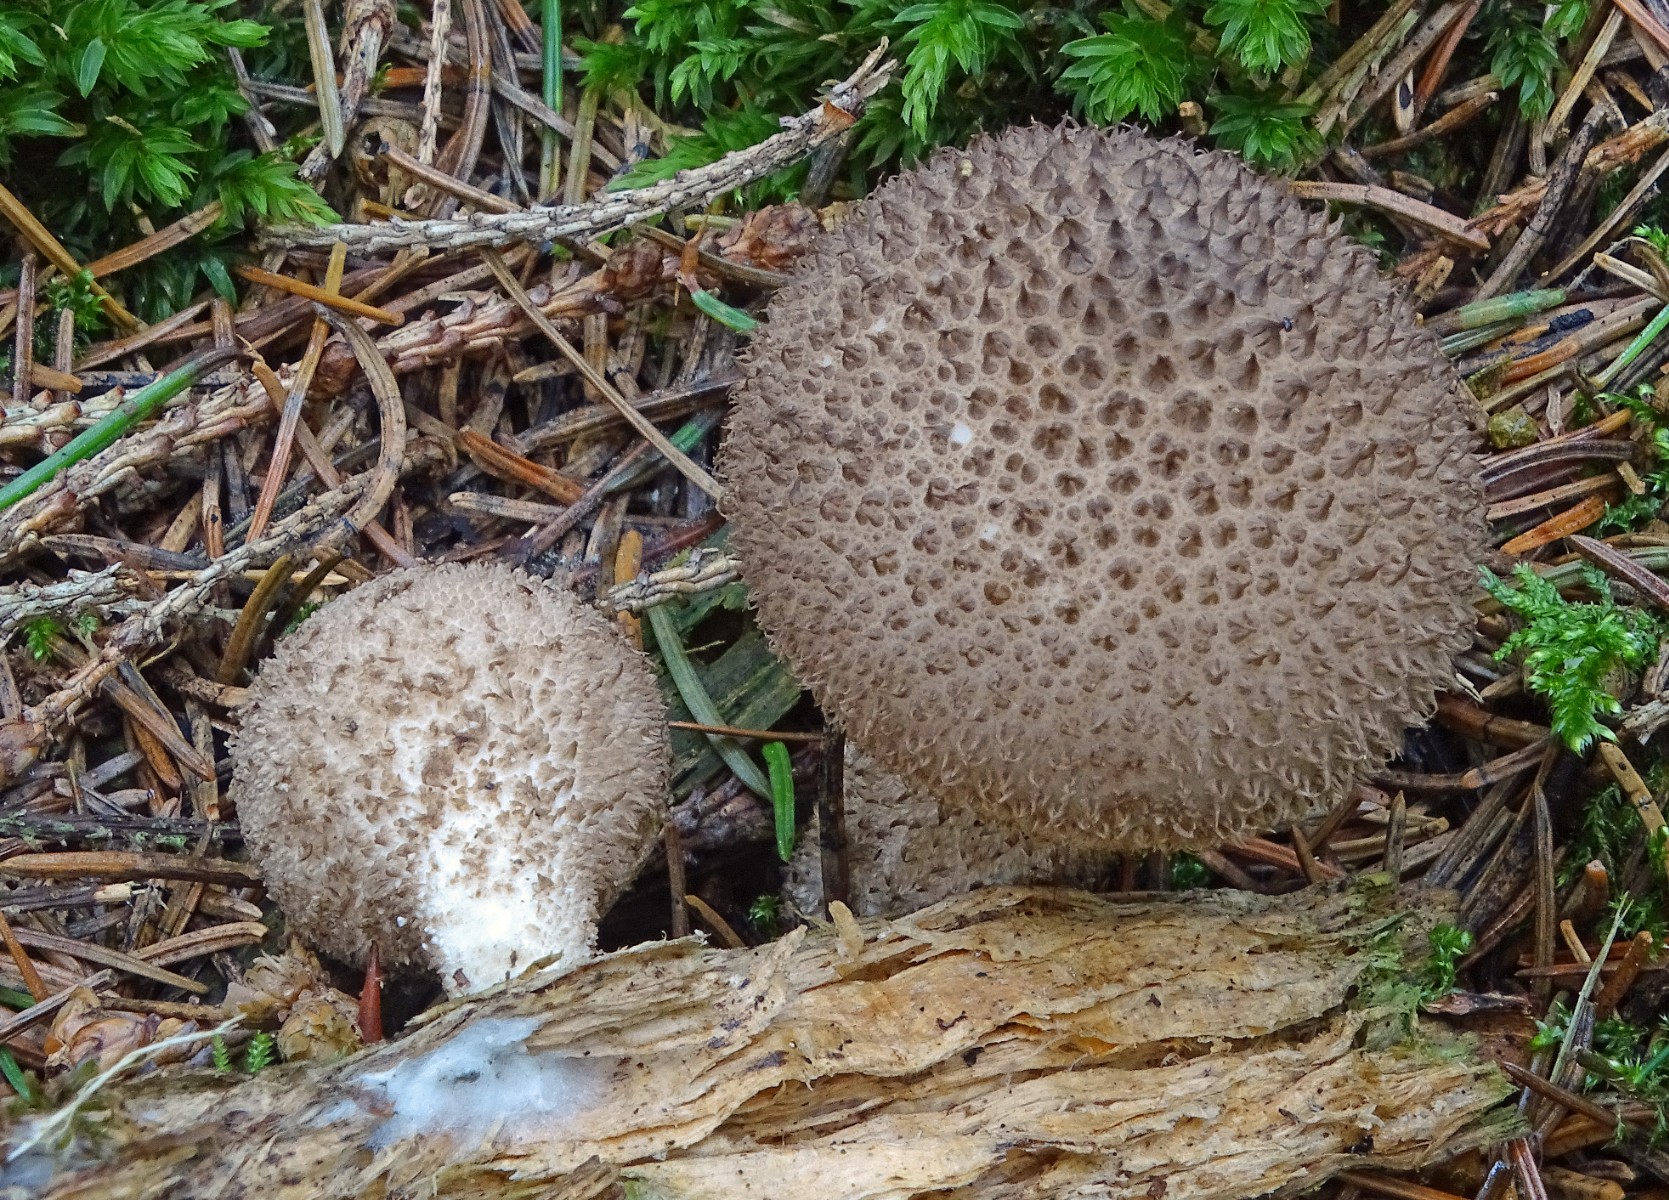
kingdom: Fungi
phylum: Basidiomycota
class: Agaricomycetes
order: Agaricales
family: Lycoperdaceae
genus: Lycoperdon
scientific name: Lycoperdon nigrescens
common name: sortagtig støvbold
